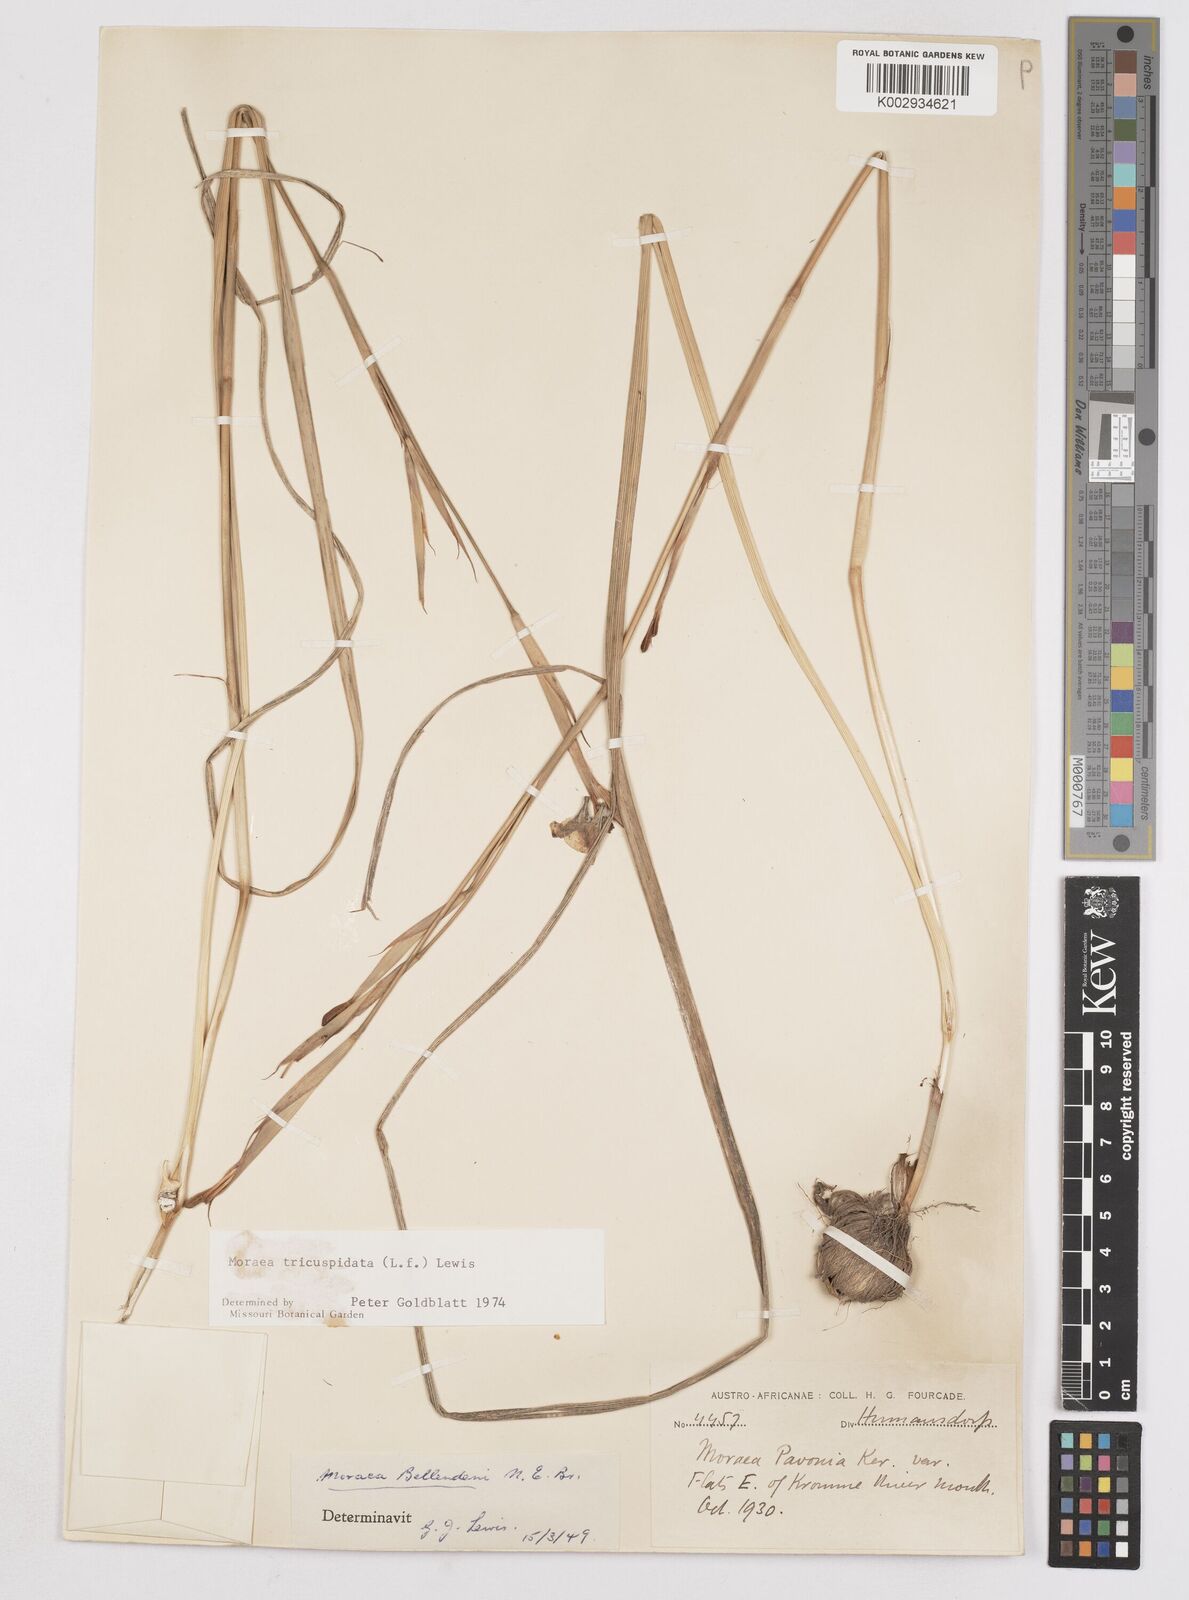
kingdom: Plantae
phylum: Tracheophyta
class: Liliopsida
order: Asparagales
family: Iridaceae
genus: Moraea
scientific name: Moraea tricuspidata
